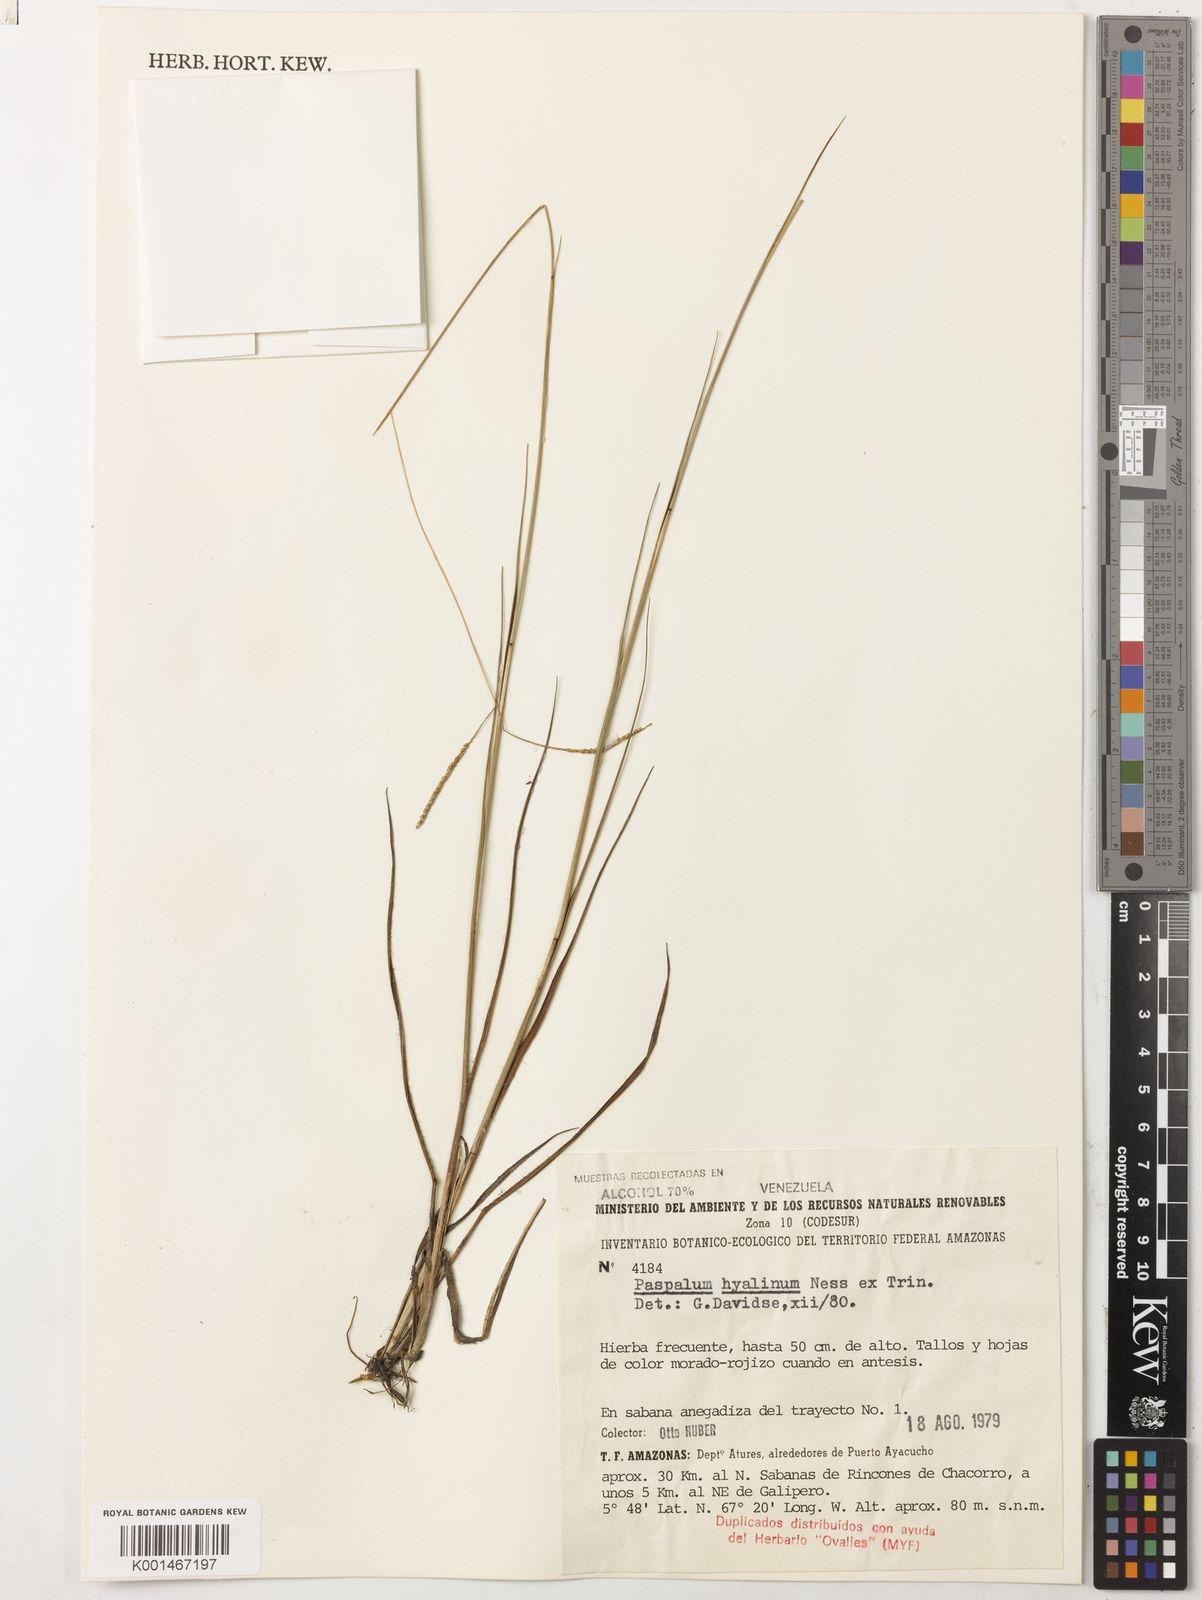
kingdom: Plantae
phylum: Tracheophyta
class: Liliopsida
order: Poales
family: Poaceae
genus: Paspalum
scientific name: Paspalum hyalinum
